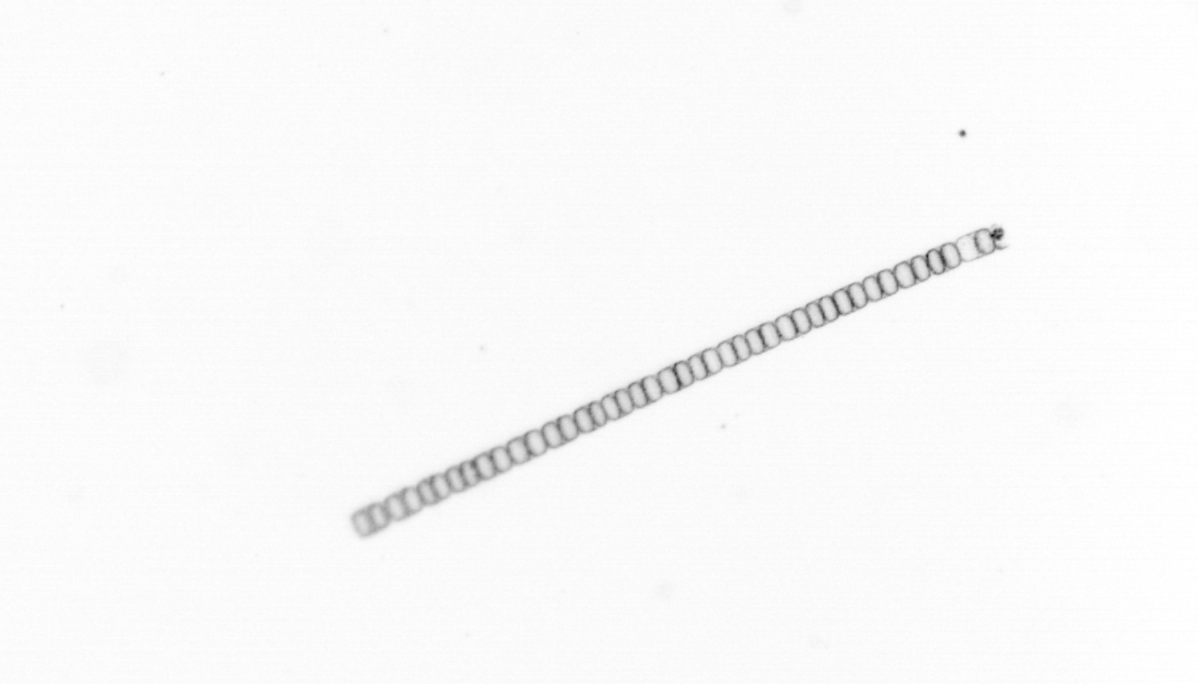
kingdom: Chromista
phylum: Ochrophyta
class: Bacillariophyceae
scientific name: Bacillariophyceae
